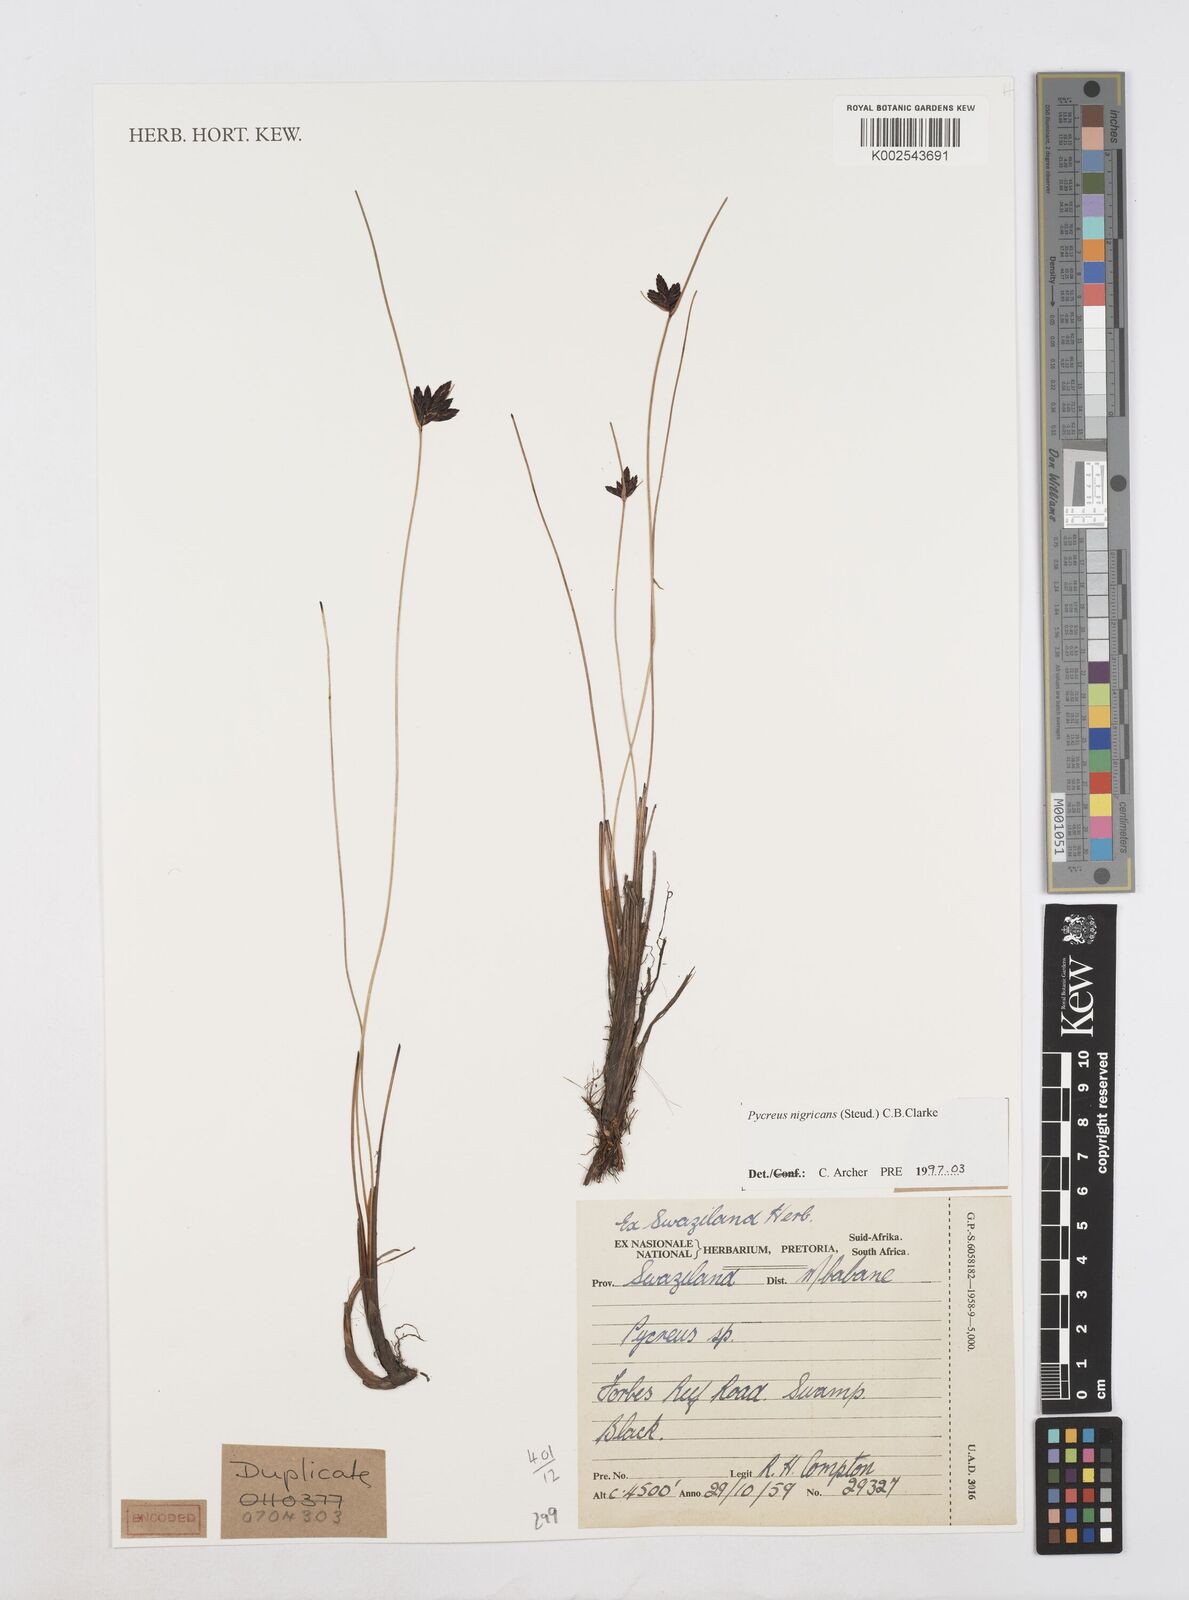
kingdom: Plantae
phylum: Tracheophyta
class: Liliopsida
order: Poales
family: Cyperaceae
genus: Cyperus
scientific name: Cyperus nigricans
